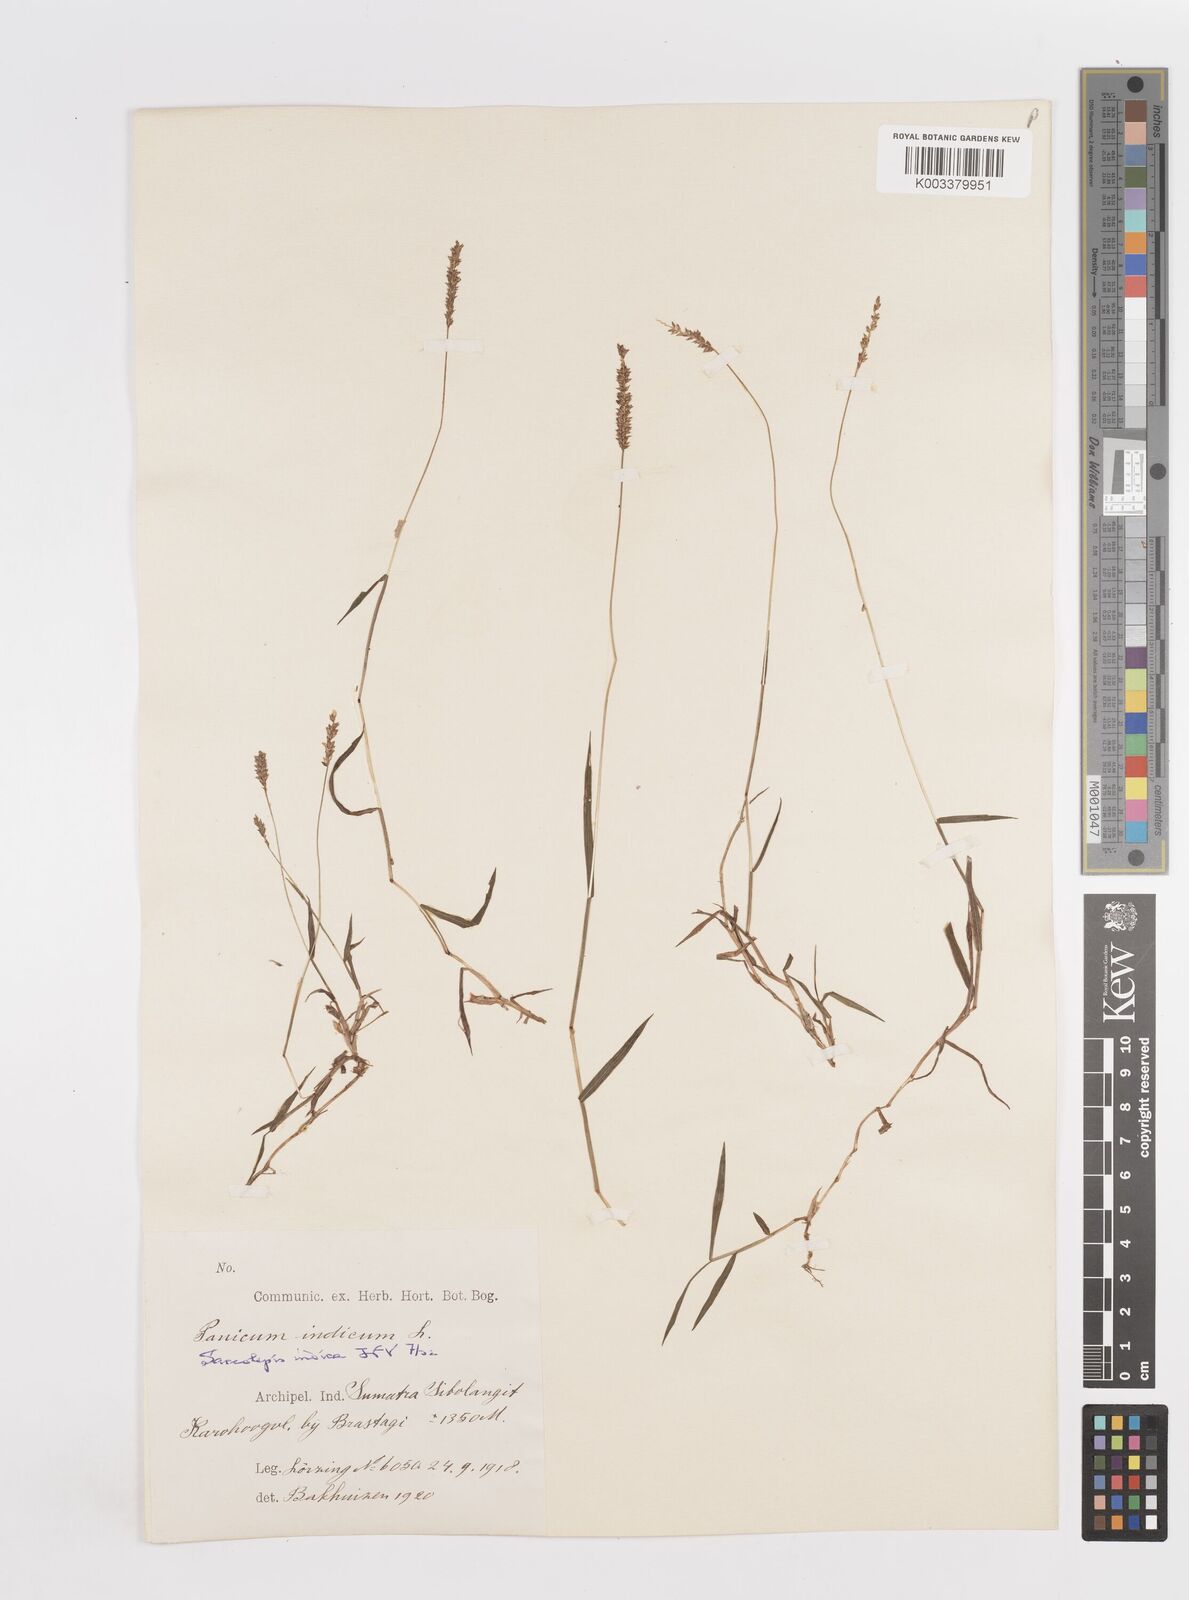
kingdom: Plantae
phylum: Tracheophyta
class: Liliopsida
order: Poales
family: Poaceae
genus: Sacciolepis
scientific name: Sacciolepis indica
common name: Glenwoodgrass
